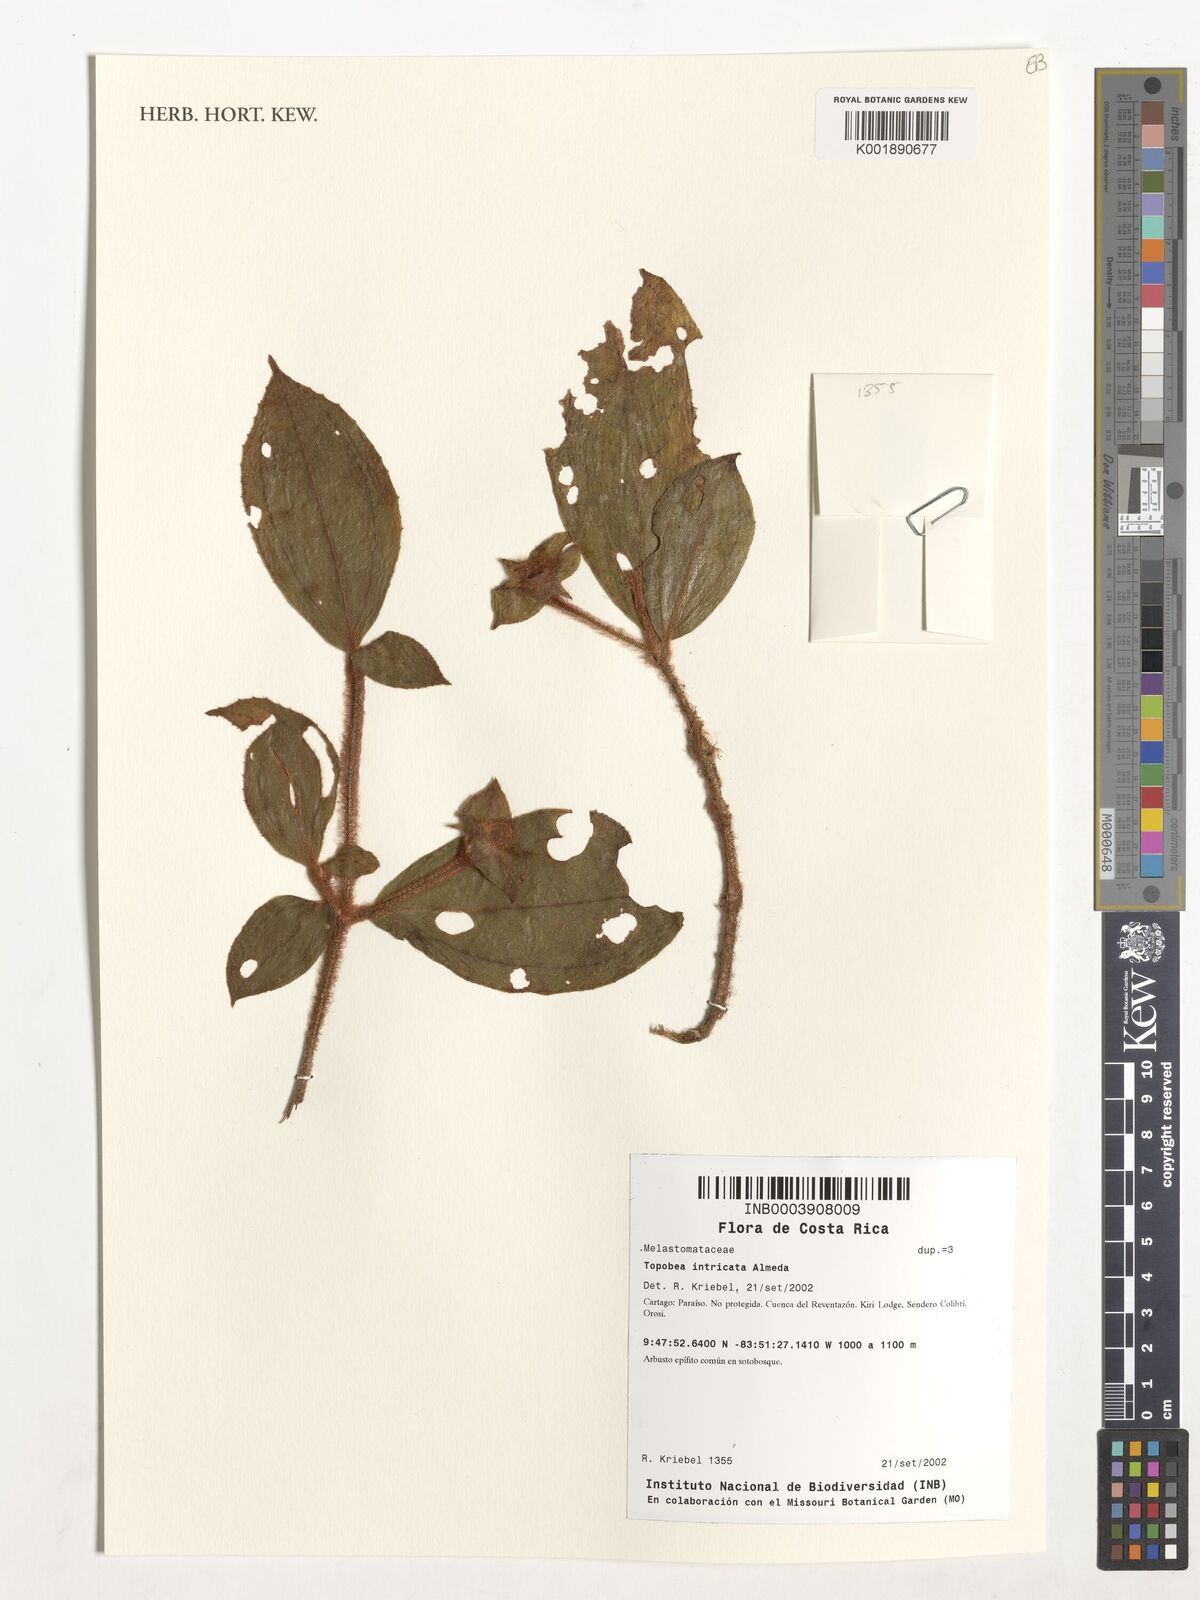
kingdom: Plantae
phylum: Tracheophyta
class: Magnoliopsida
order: Myrtales
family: Melastomataceae
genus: Blakea
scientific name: Blakea intricata
